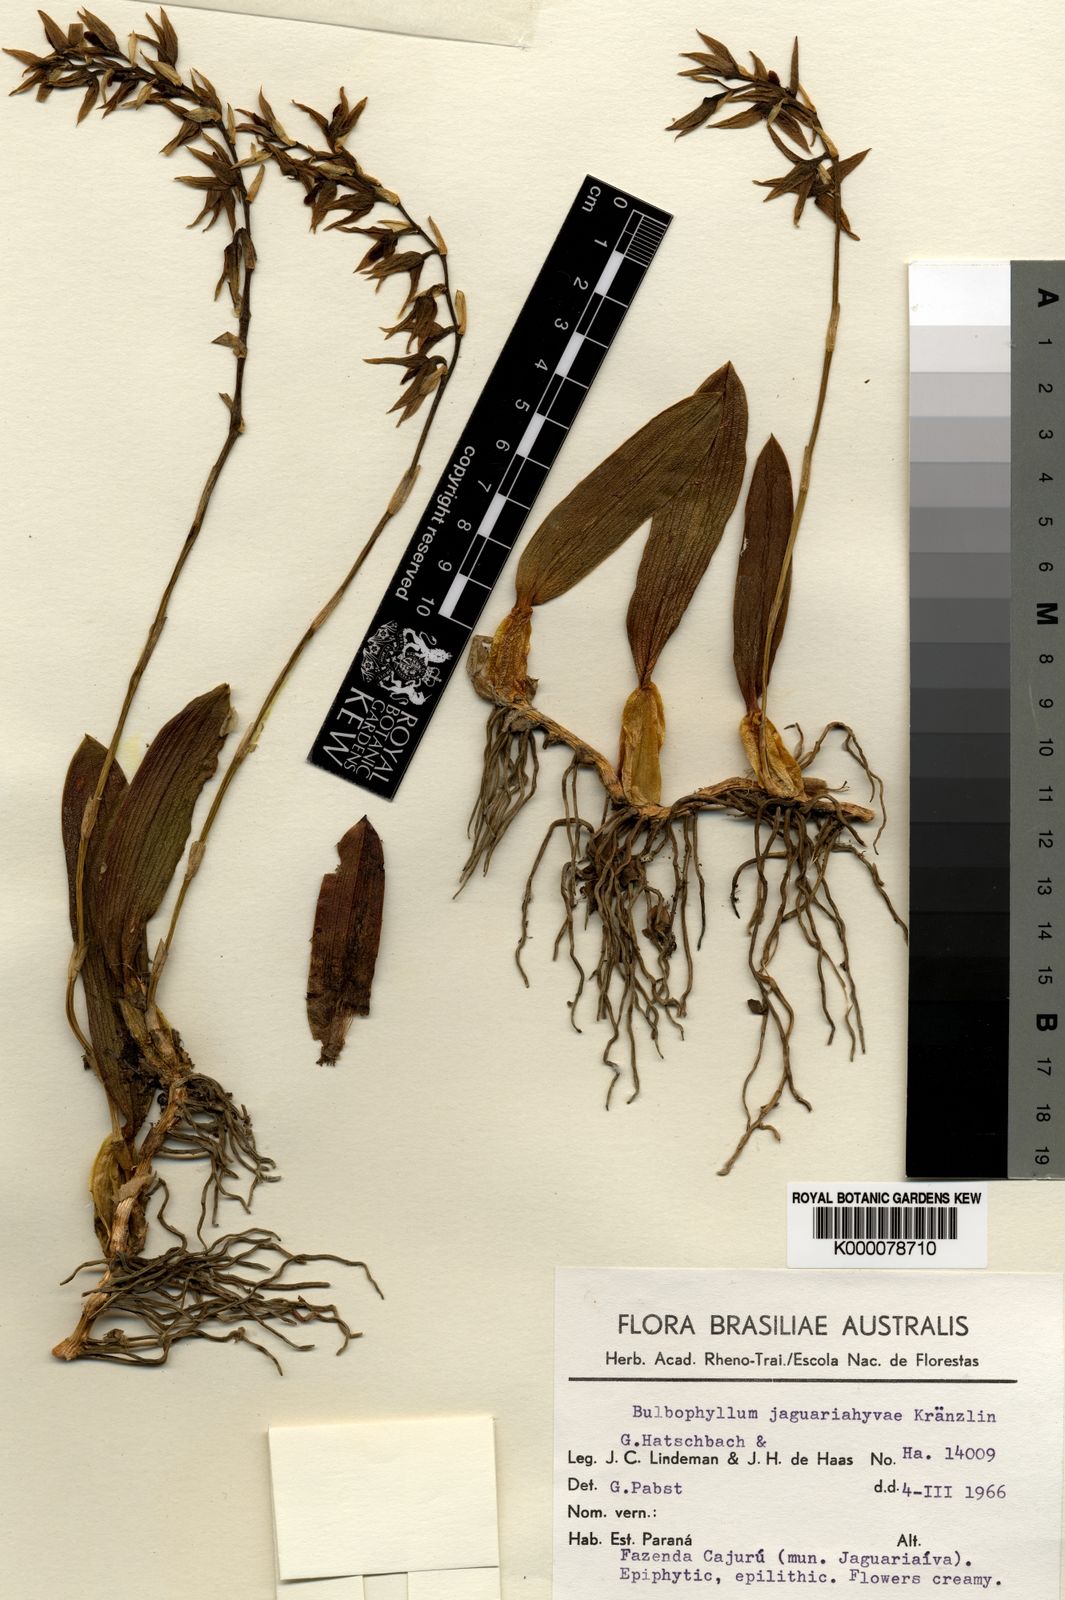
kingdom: Plantae
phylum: Tracheophyta
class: Liliopsida
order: Asparagales
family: Orchidaceae
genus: Bulbophyllum
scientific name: Bulbophyllum tripetalum
